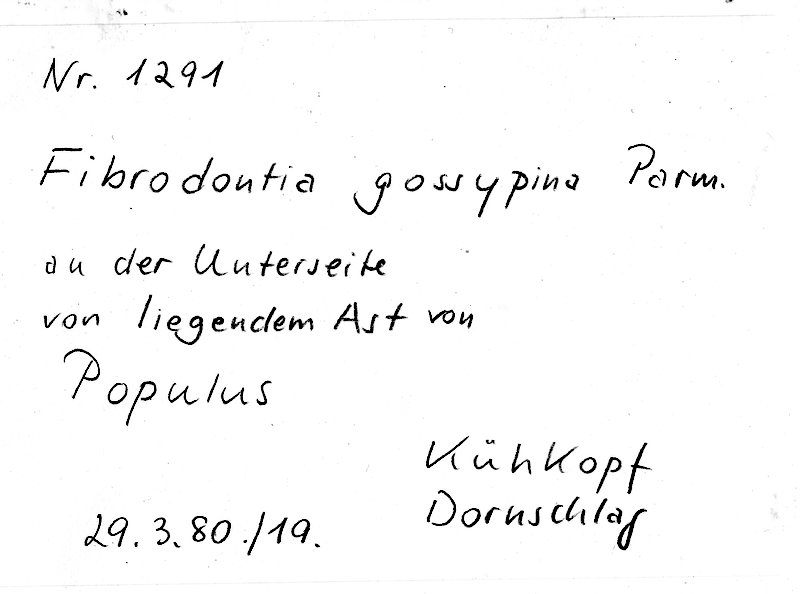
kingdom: Plantae
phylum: Tracheophyta
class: Magnoliopsida
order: Malpighiales
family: Salicaceae
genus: Populus
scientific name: Populus
